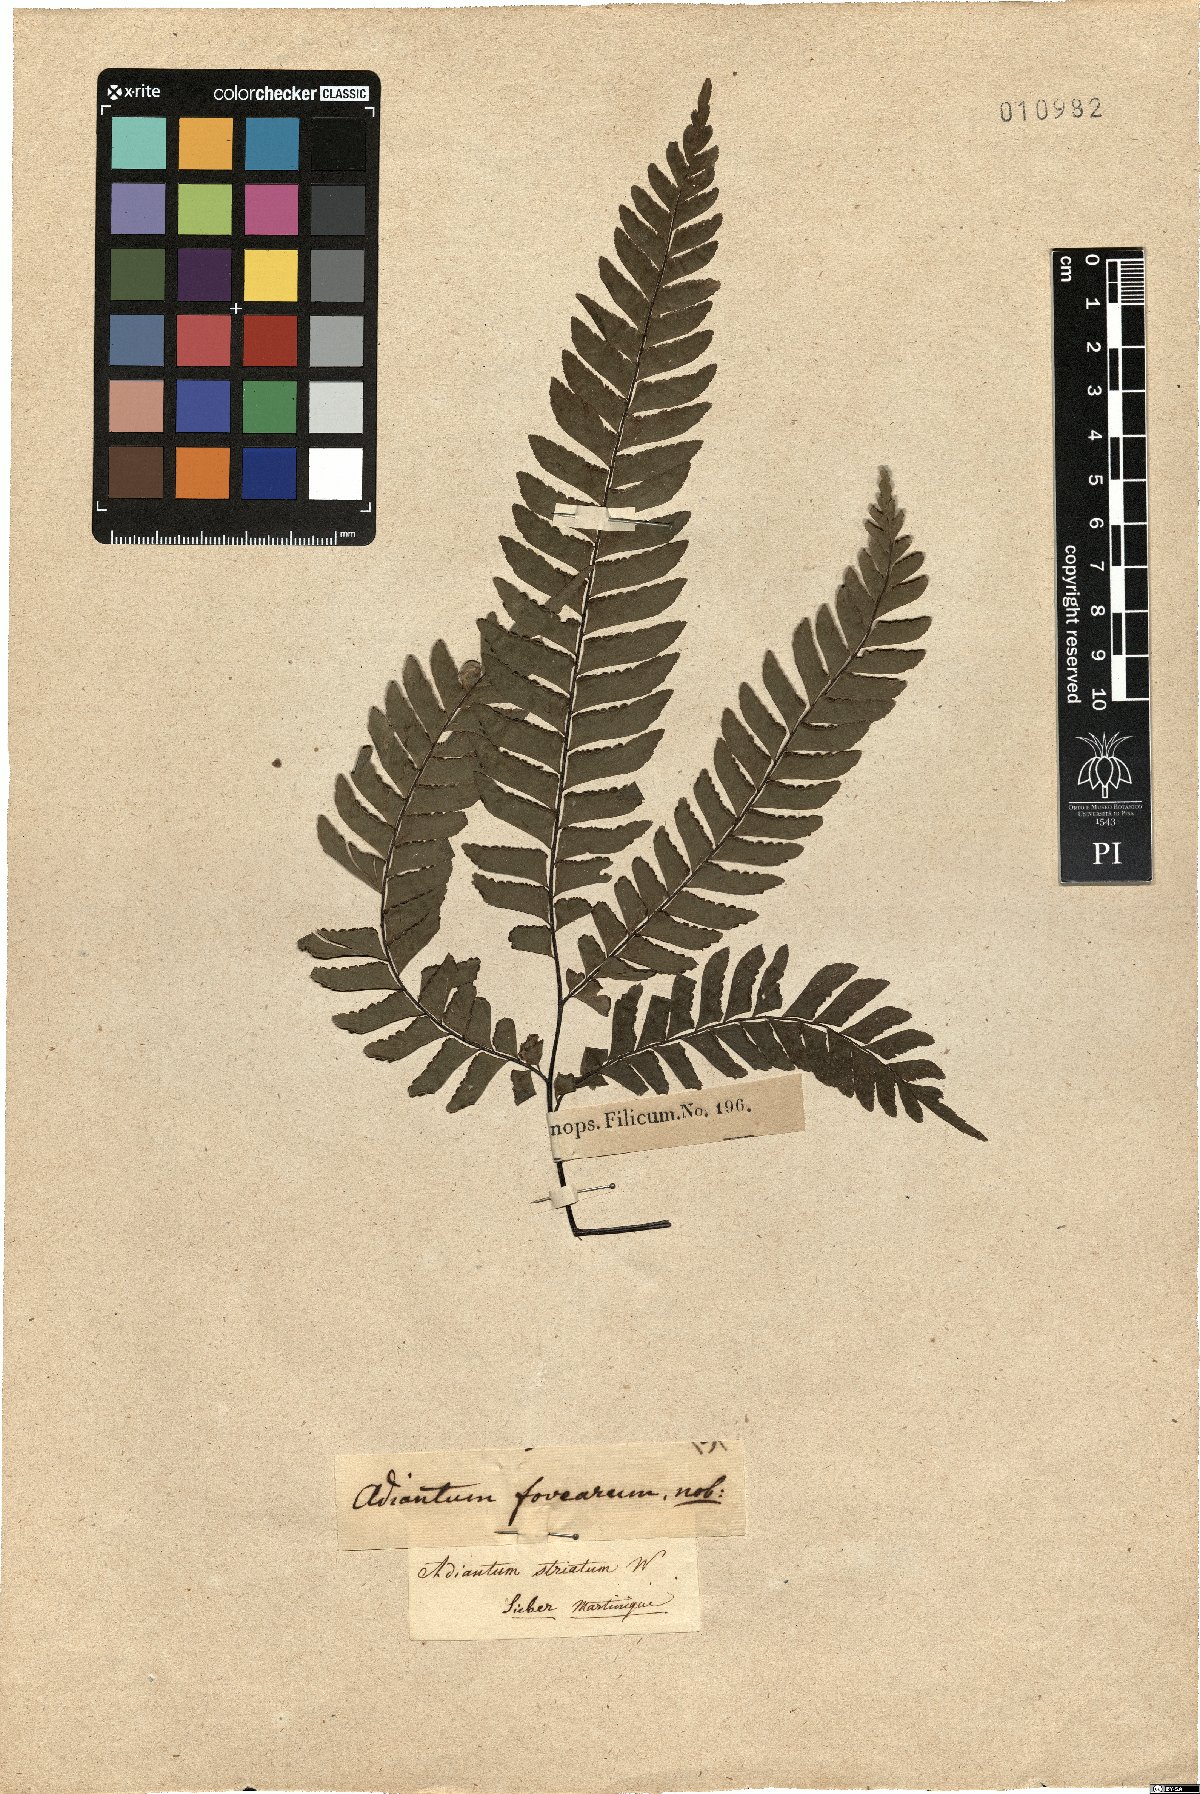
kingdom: Plantae
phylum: Tracheophyta
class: Polypodiopsida
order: Polypodiales
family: Pteridaceae
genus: Adiantum
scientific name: Adiantum latifolium
